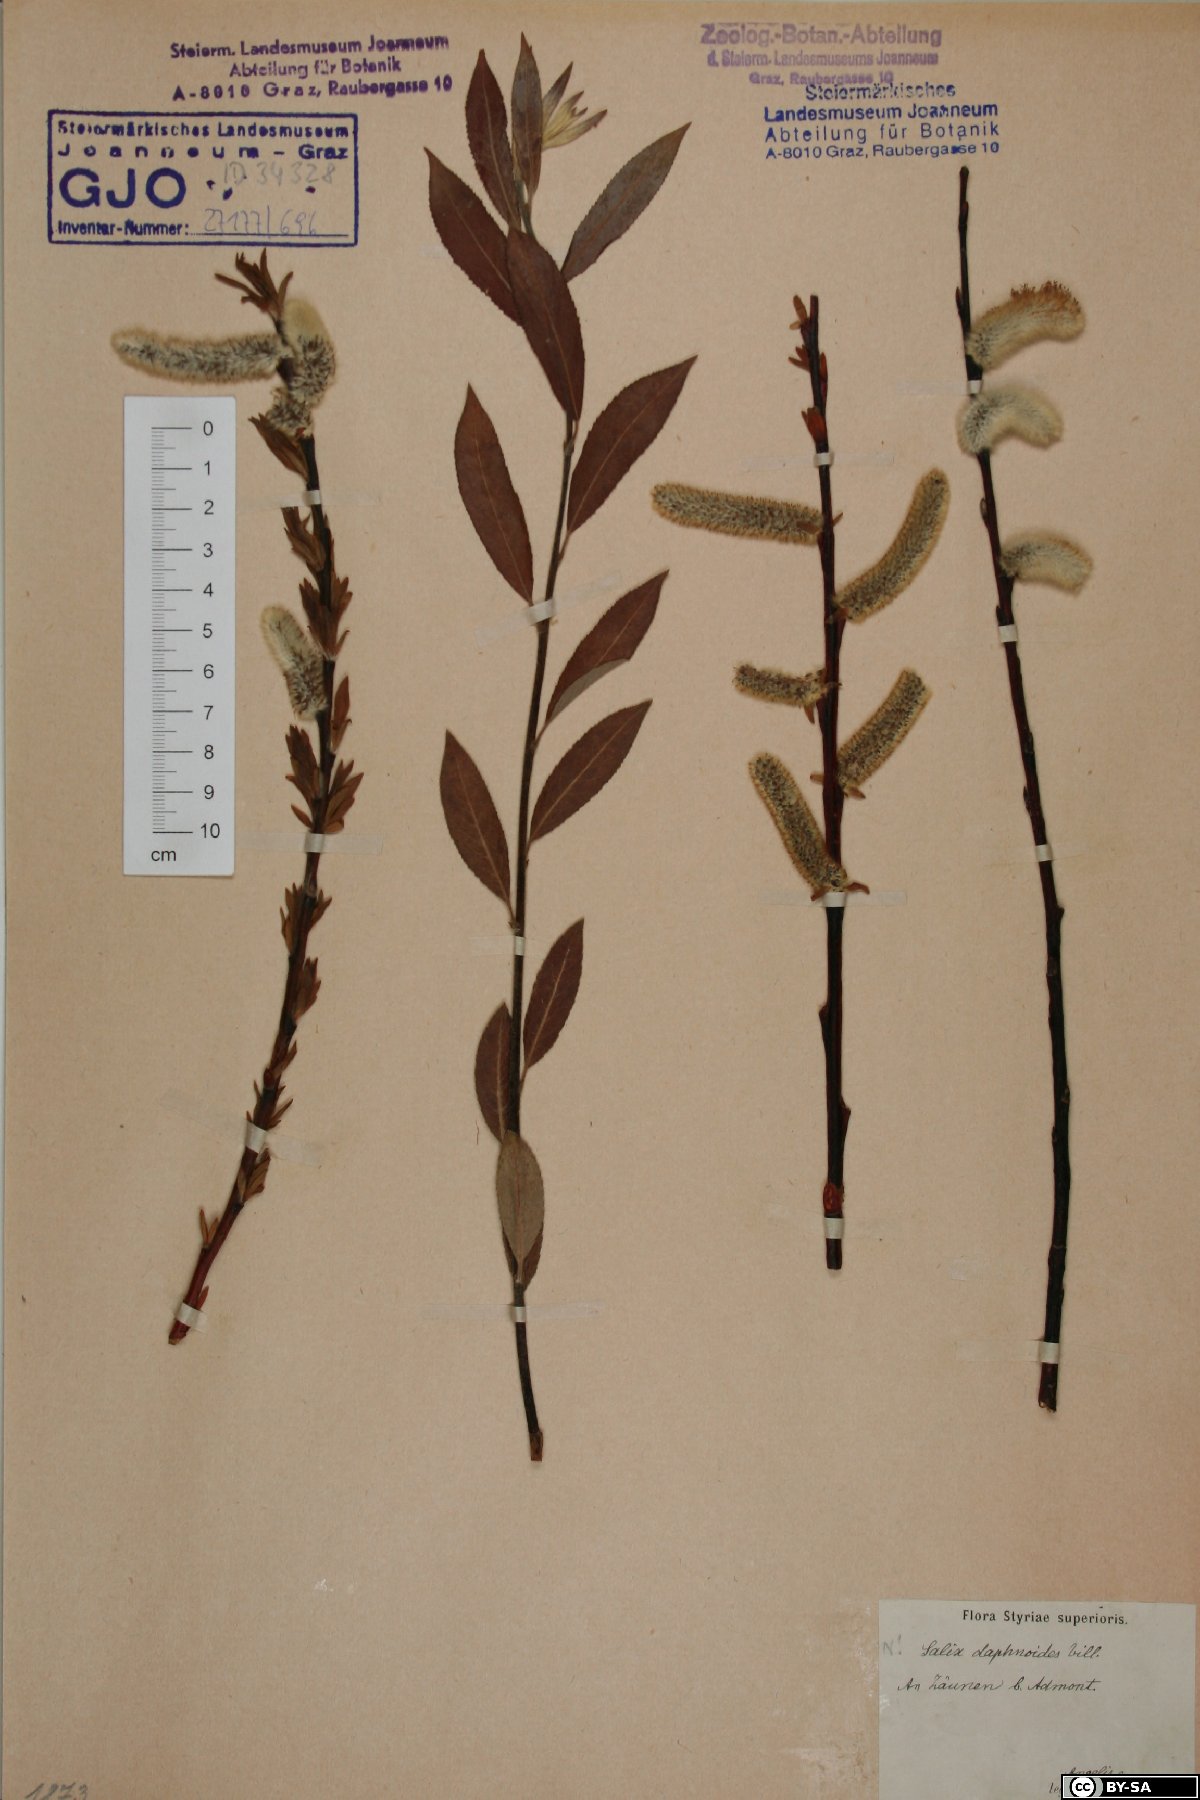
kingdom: Plantae
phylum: Tracheophyta
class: Magnoliopsida
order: Malpighiales
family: Salicaceae
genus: Salix
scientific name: Salix daphnoides
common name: European violet-willow
